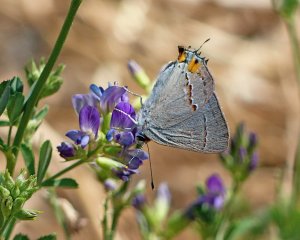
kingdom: Animalia
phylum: Arthropoda
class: Insecta
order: Lepidoptera
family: Lycaenidae
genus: Strymon
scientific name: Strymon melinus
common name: Gray Hairstreak
